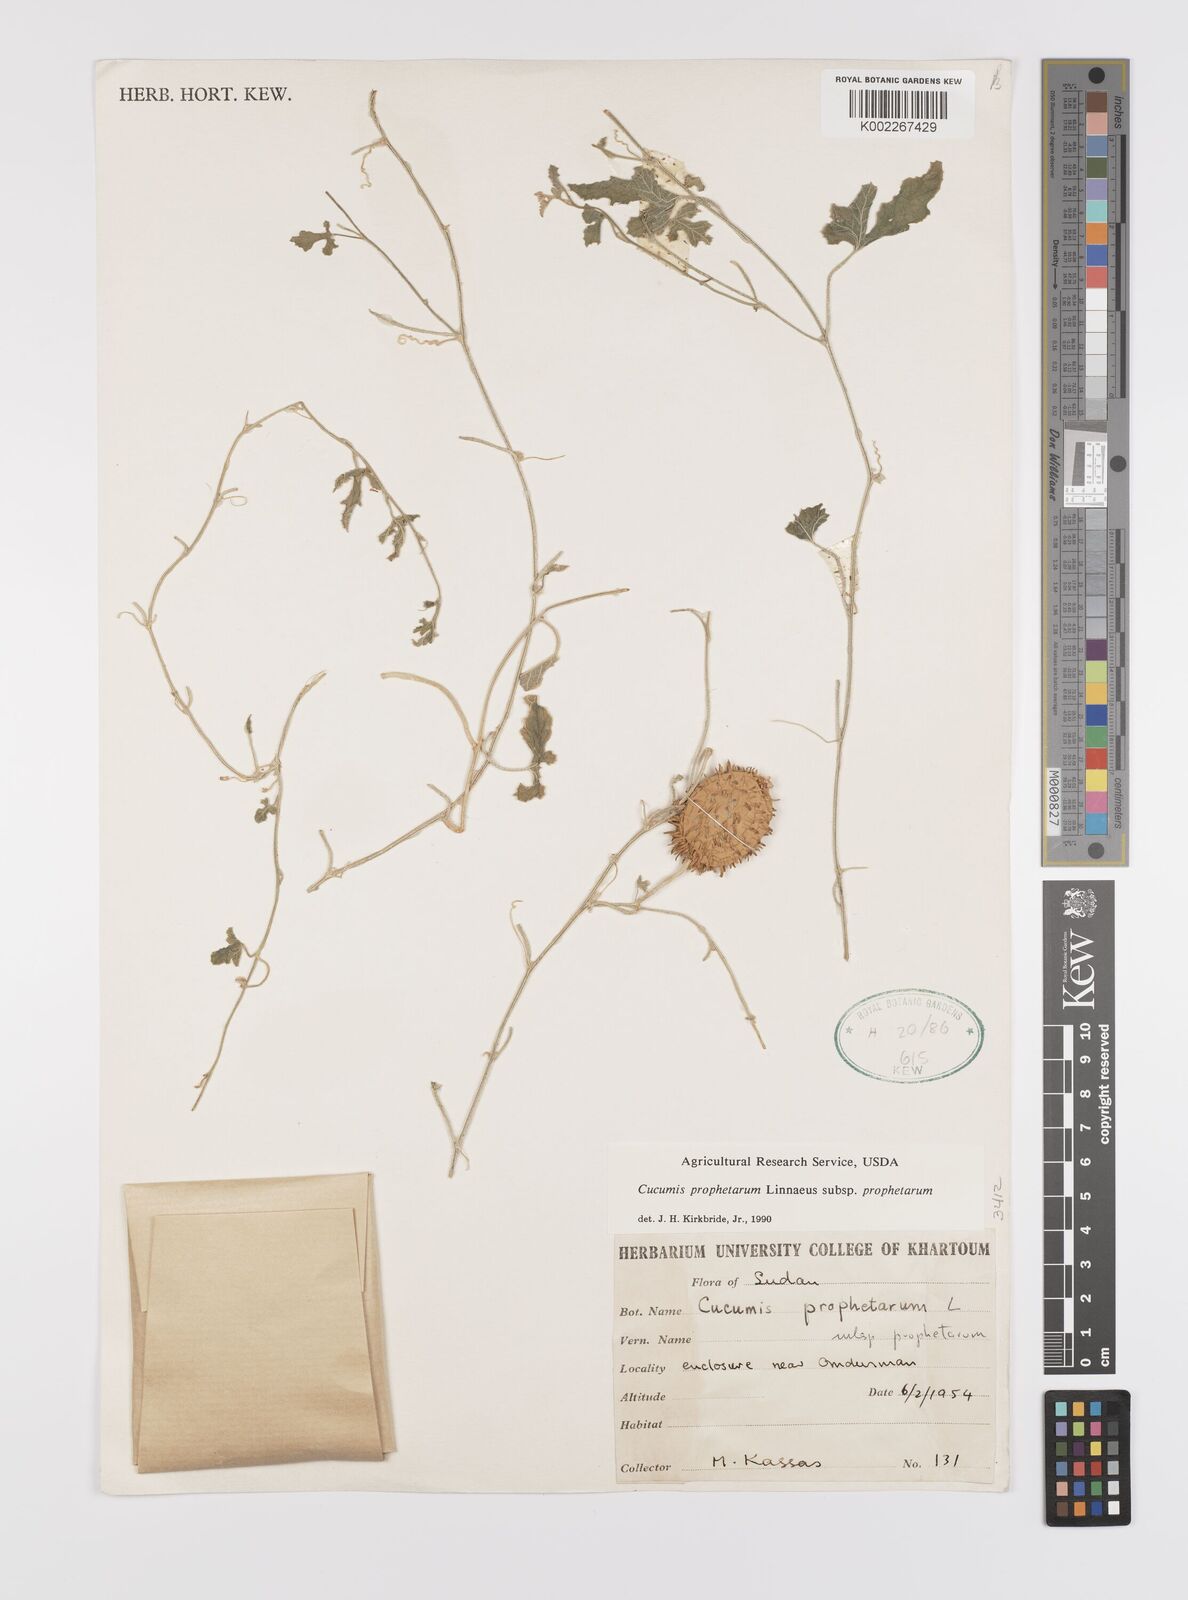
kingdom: Plantae
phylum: Tracheophyta
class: Magnoliopsida
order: Cucurbitales
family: Cucurbitaceae
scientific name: Cucurbitaceae
